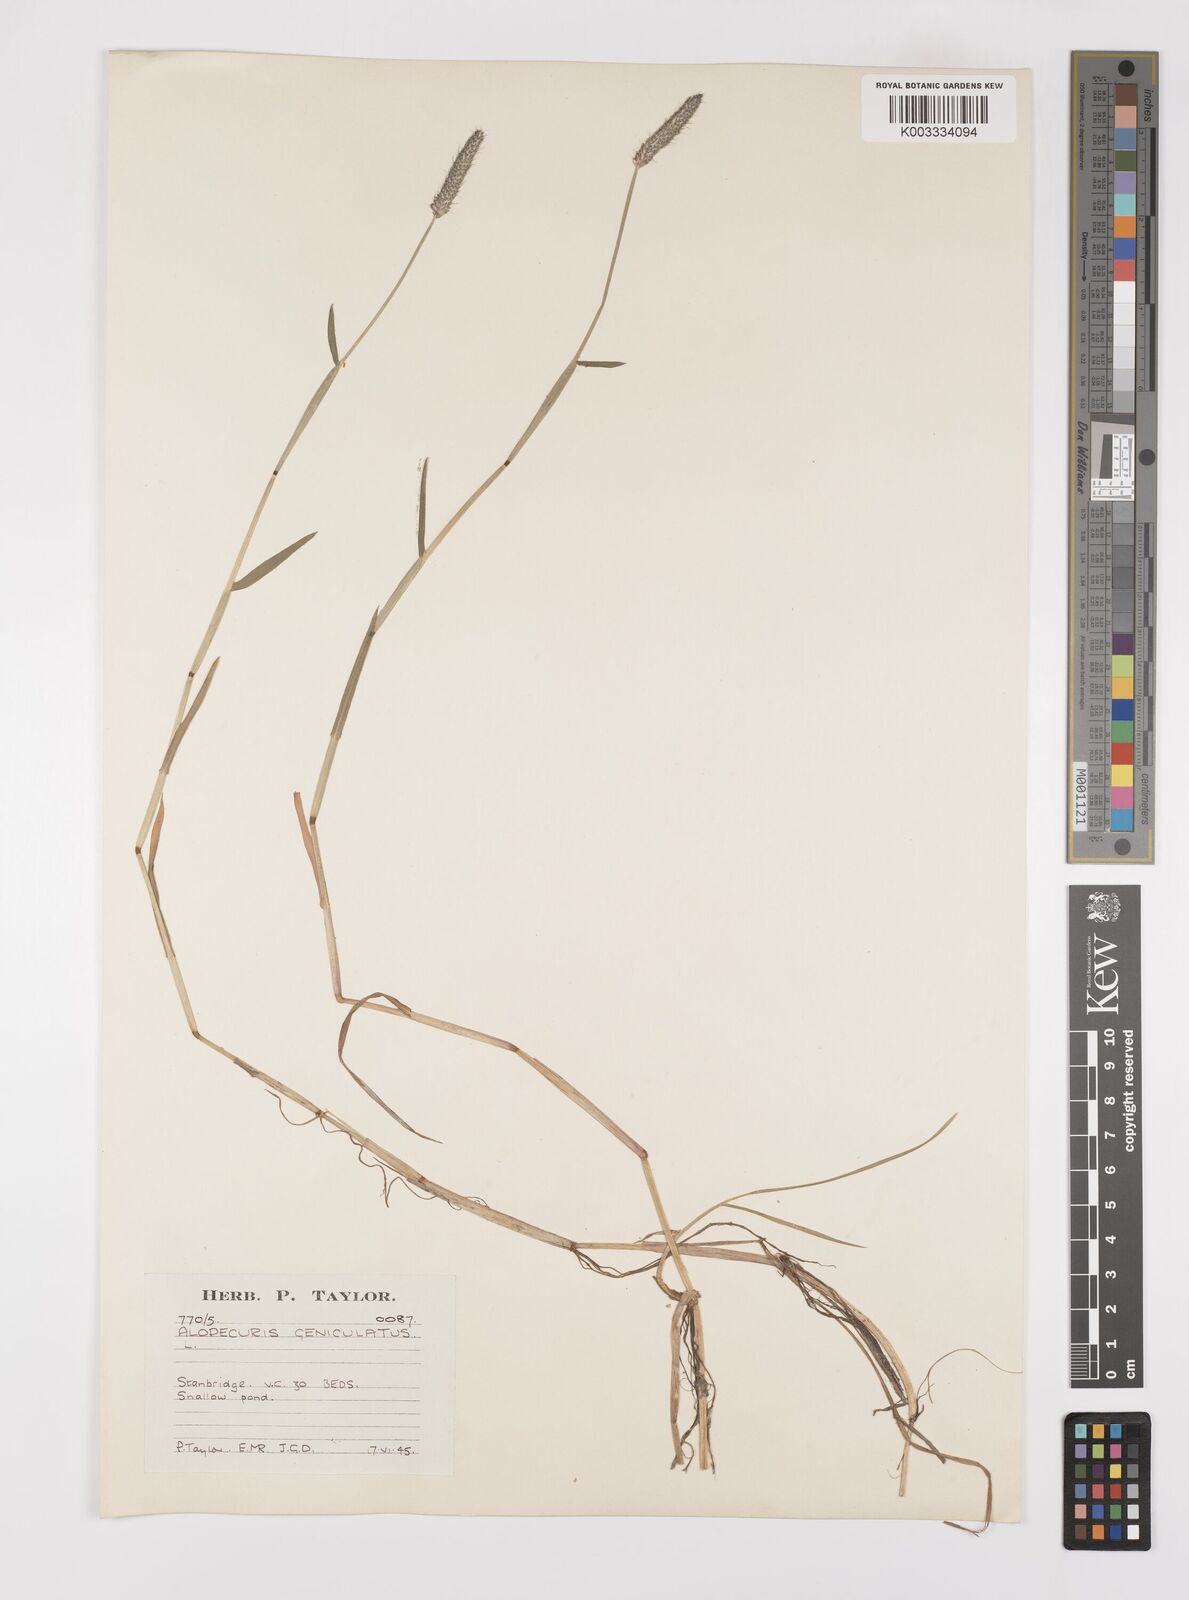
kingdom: Plantae
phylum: Tracheophyta
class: Liliopsida
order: Poales
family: Poaceae
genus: Alopecurus
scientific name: Alopecurus geniculatus
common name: Water foxtail
